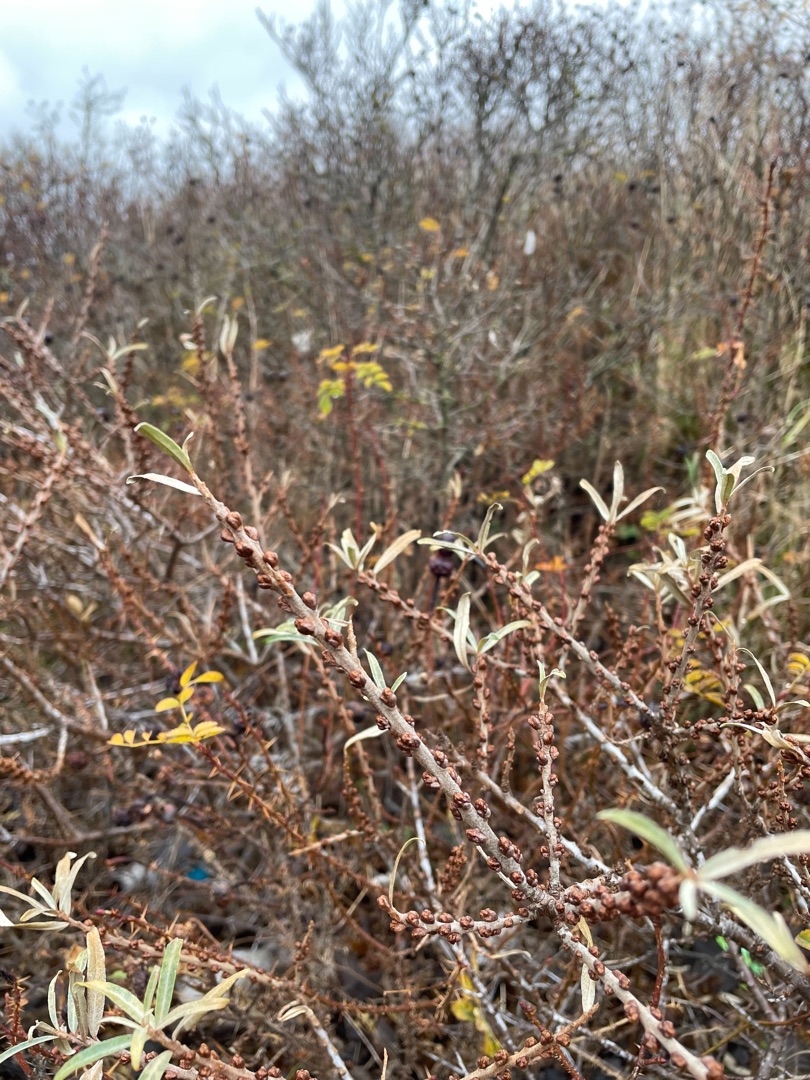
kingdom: Plantae
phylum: Tracheophyta
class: Magnoliopsida
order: Rosales
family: Elaeagnaceae
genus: Hippophae
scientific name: Hippophae rhamnoides
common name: Havtorn
